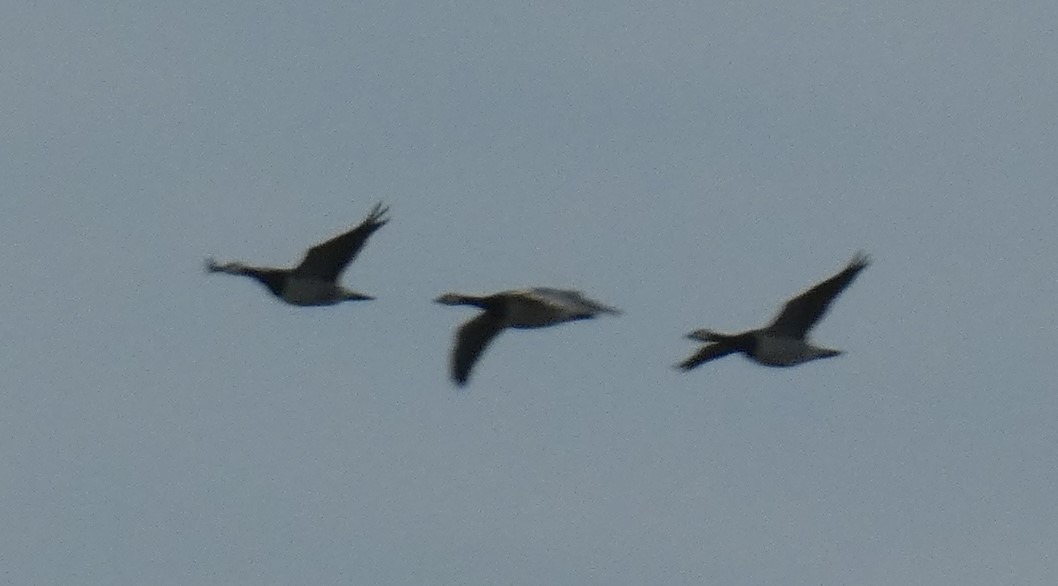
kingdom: Animalia
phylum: Chordata
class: Aves
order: Anseriformes
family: Anatidae
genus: Branta
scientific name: Branta leucopsis
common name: Bramgås
